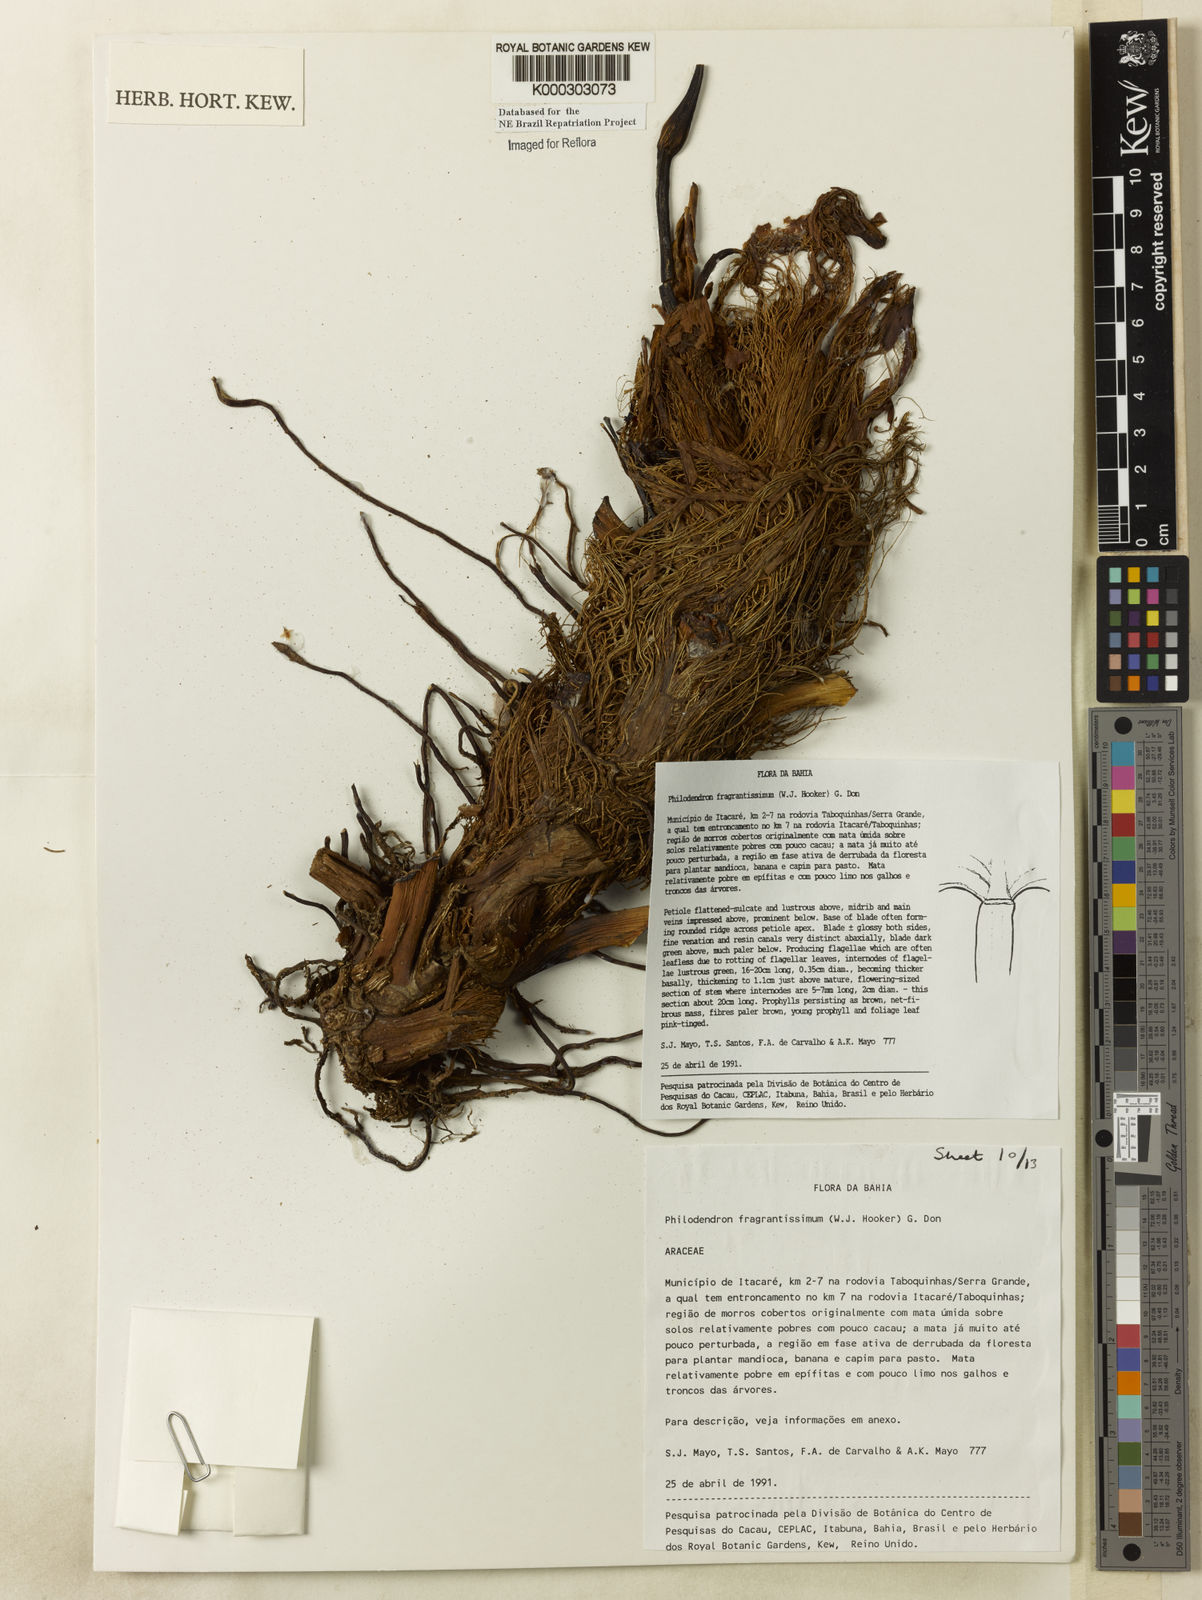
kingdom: Plantae
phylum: Tracheophyta
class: Liliopsida
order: Alismatales
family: Araceae
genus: Philodendron
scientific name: Philodendron fragrantissimum
